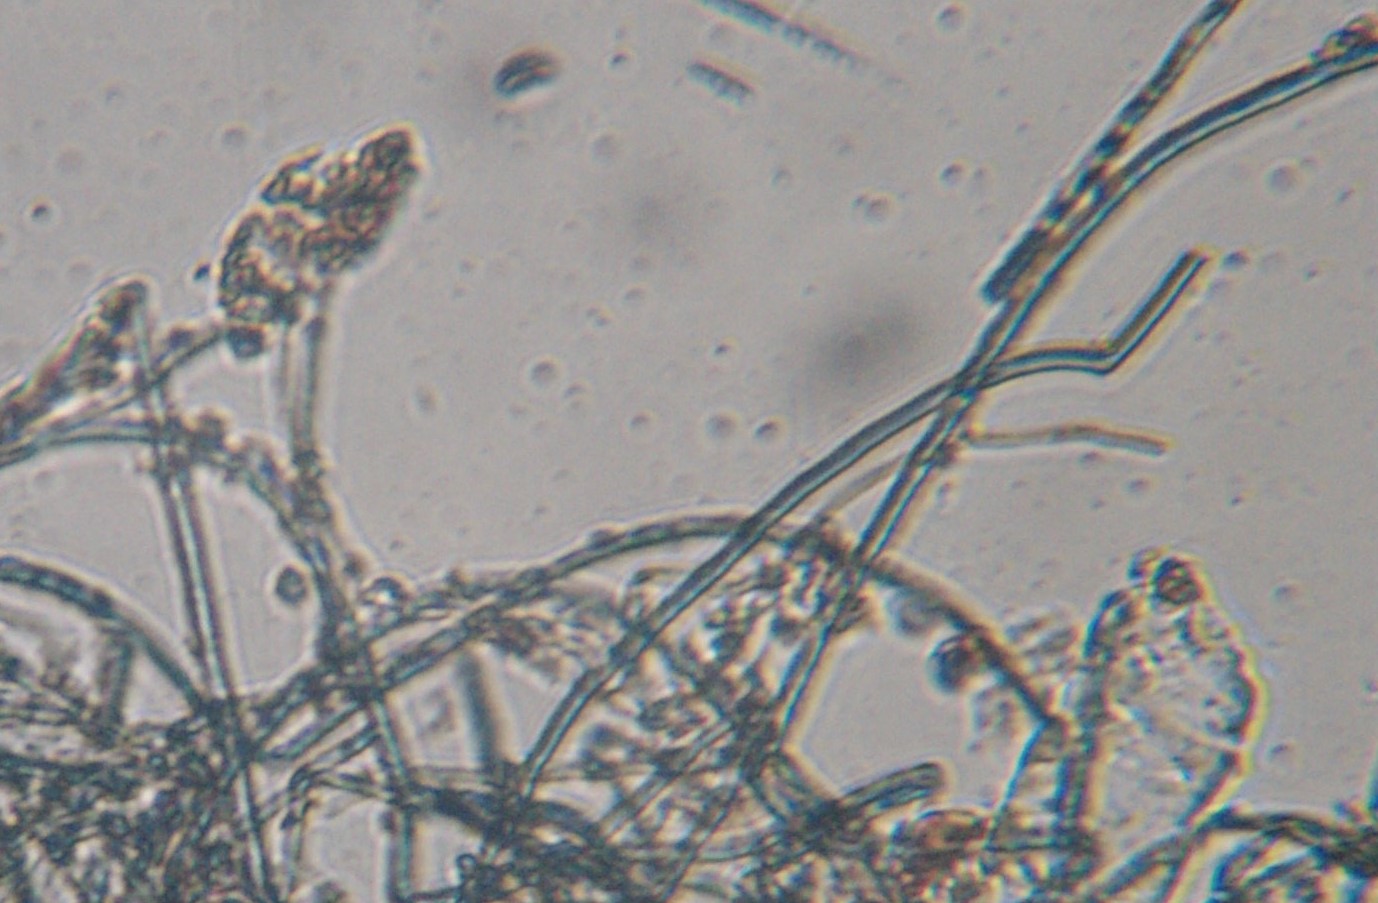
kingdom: Fungi
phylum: Basidiomycota
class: Agaricomycetes
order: Atheliales
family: Atheliaceae
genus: Byssocorticium
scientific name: Byssocorticium
